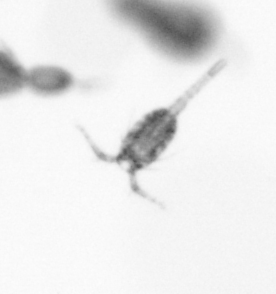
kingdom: Animalia
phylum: Arthropoda
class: Copepoda
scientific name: Copepoda
